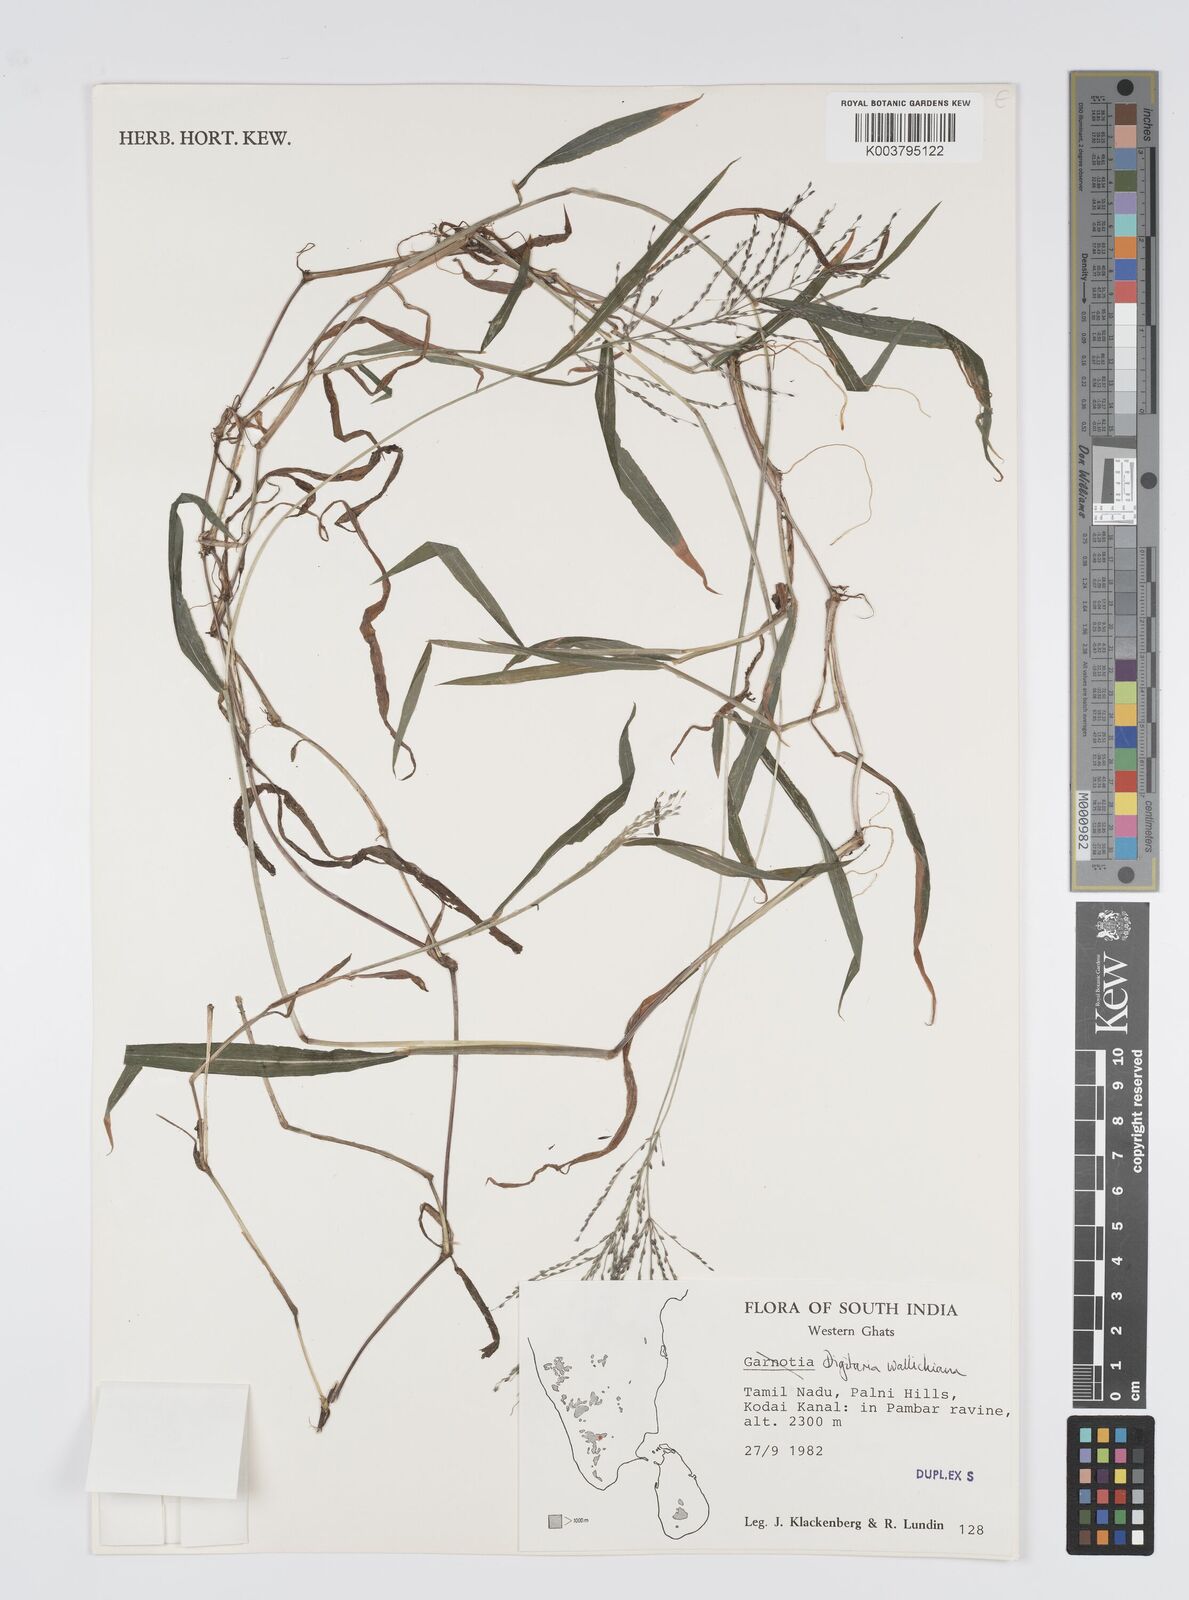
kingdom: Plantae
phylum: Tracheophyta
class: Liliopsida
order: Poales
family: Poaceae
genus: Digitaria
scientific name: Digitaria wallichiana
